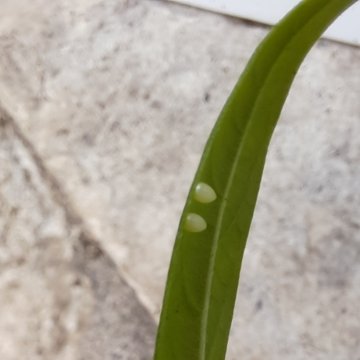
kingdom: Animalia
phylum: Arthropoda
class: Insecta
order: Lepidoptera
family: Nymphalidae
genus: Danaus
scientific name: Danaus plexippus
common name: Monarch
